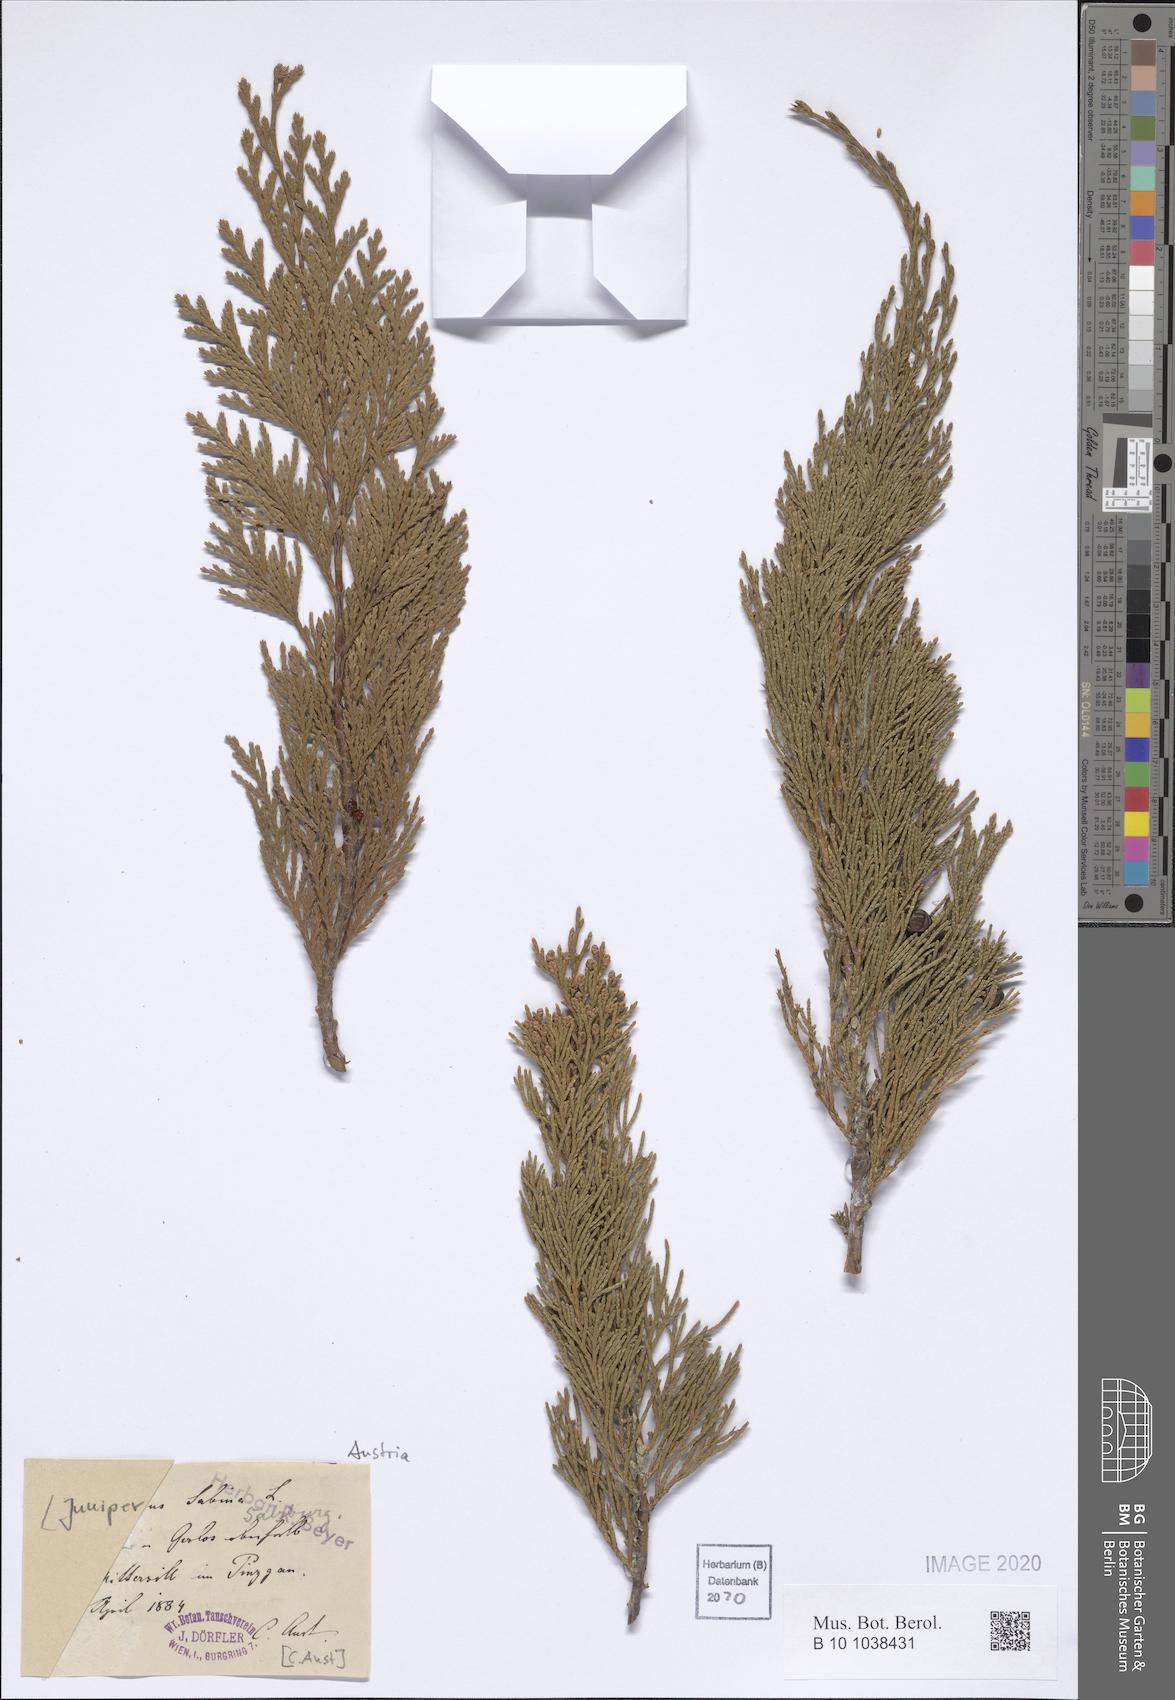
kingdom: Plantae
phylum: Tracheophyta
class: Pinopsida
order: Pinales
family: Cupressaceae
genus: Juniperus
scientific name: Juniperus sabina
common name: Savin
